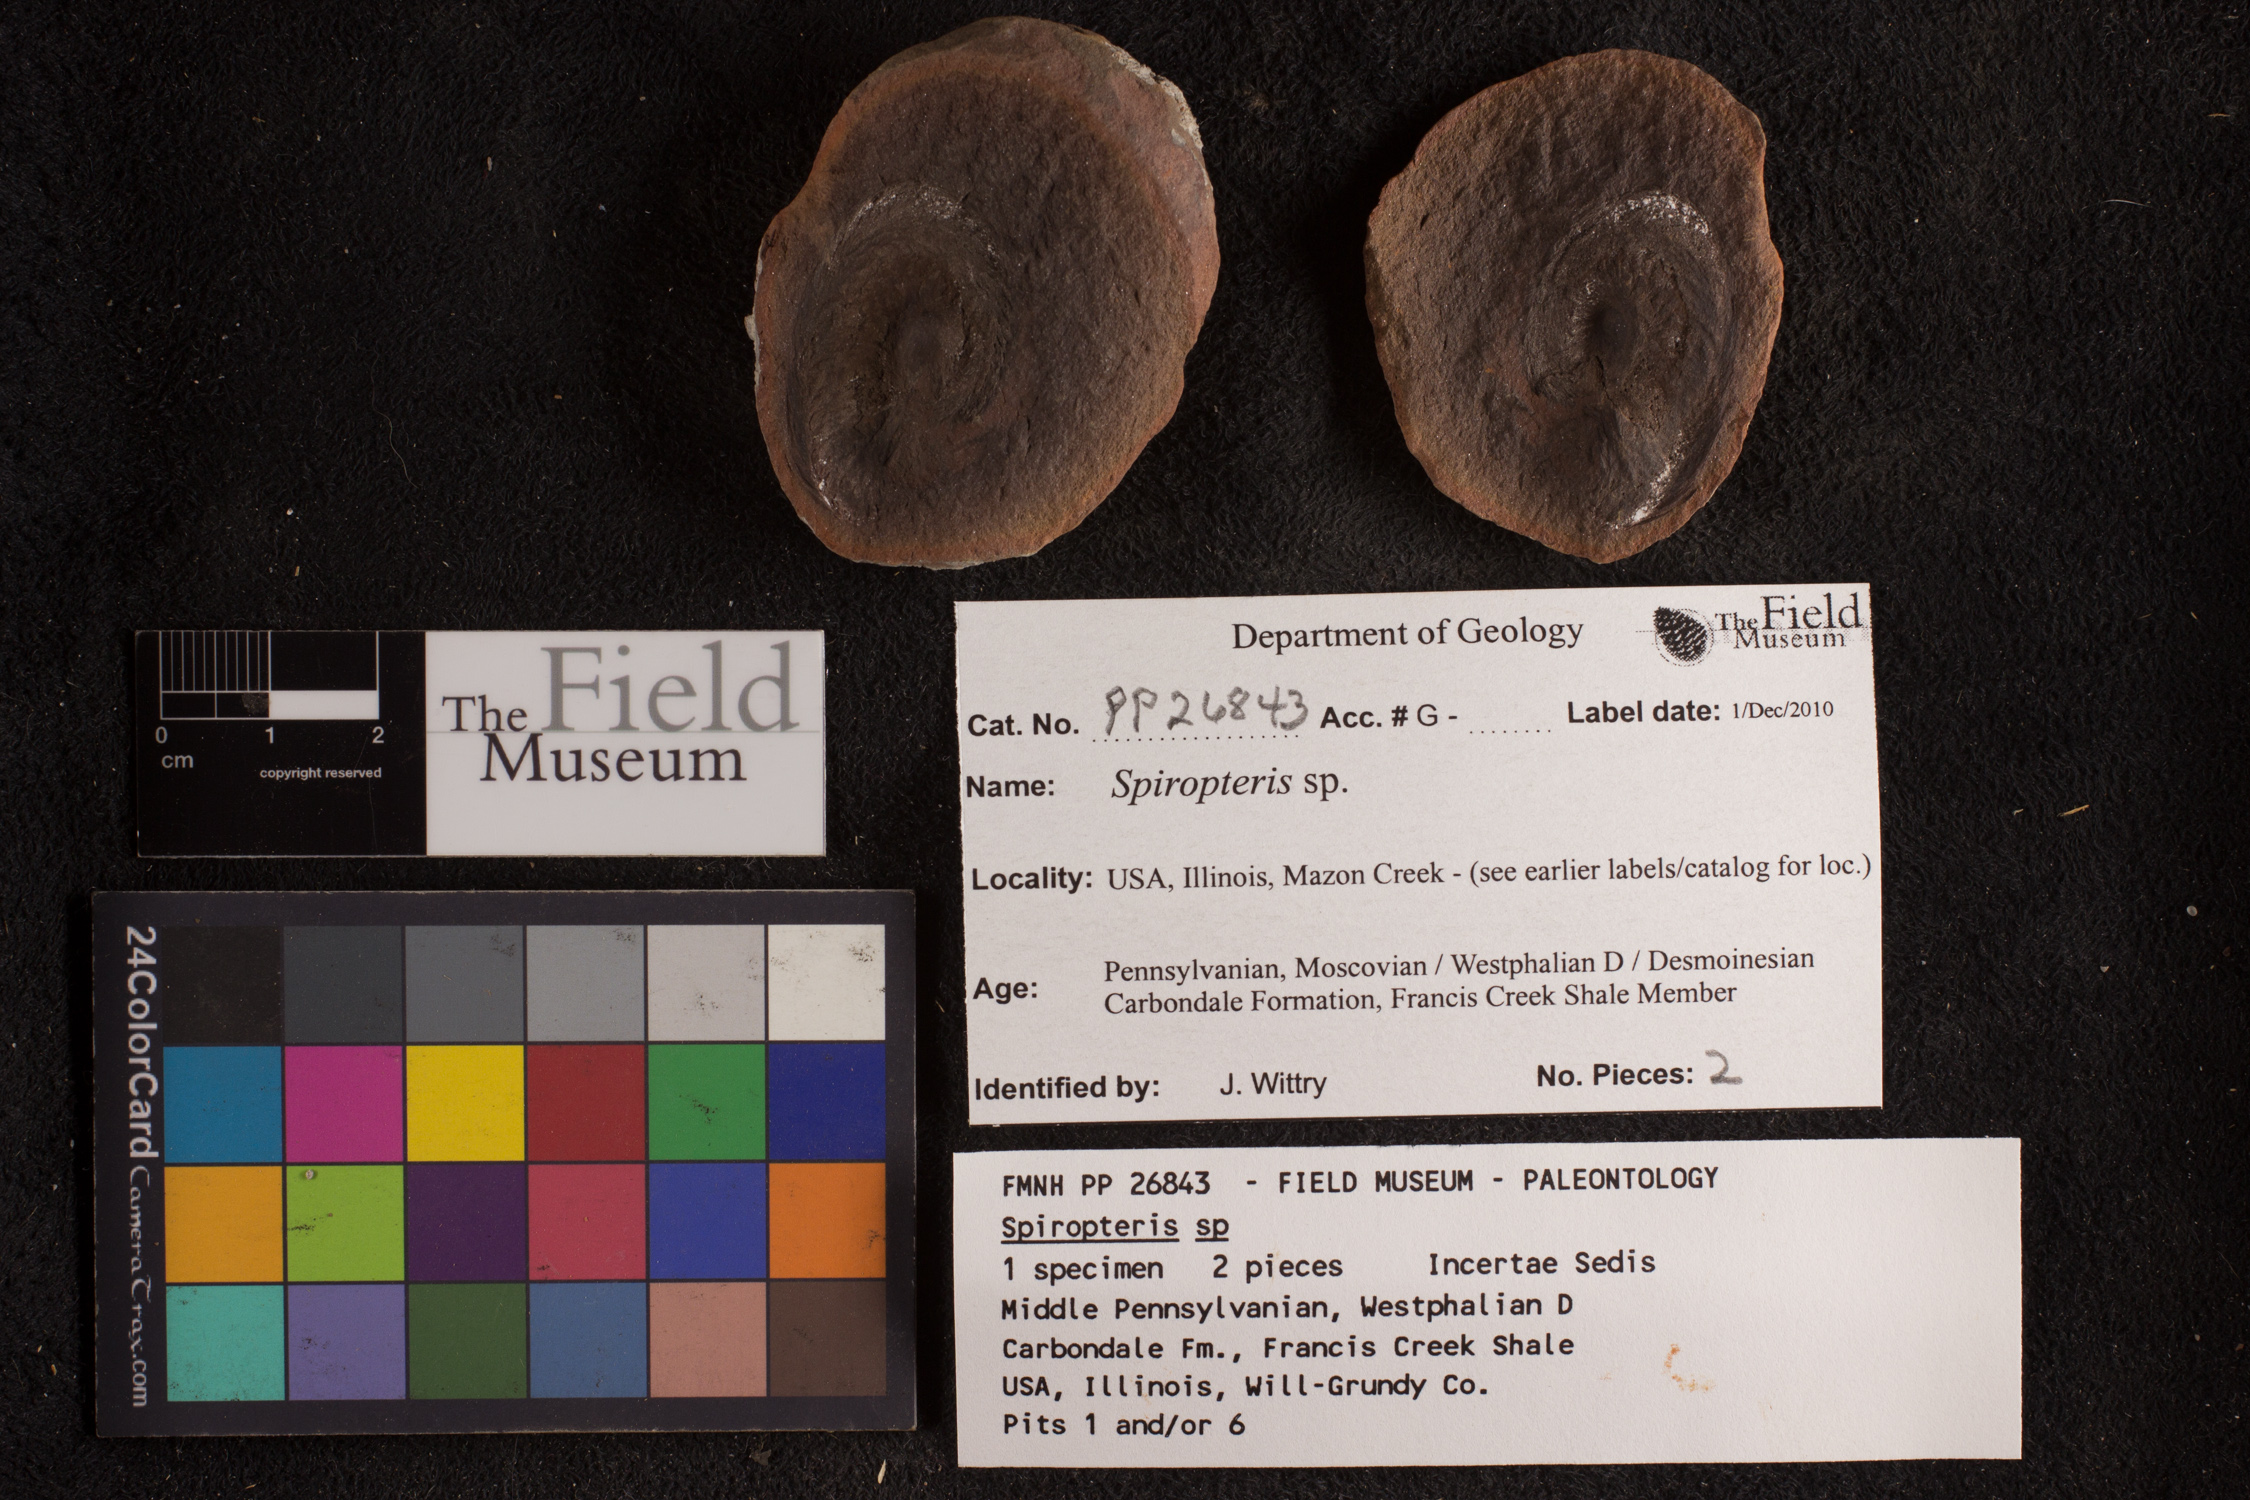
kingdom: Plantae
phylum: Tracheophyta
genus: Spiropteris
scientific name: Spiropteris
